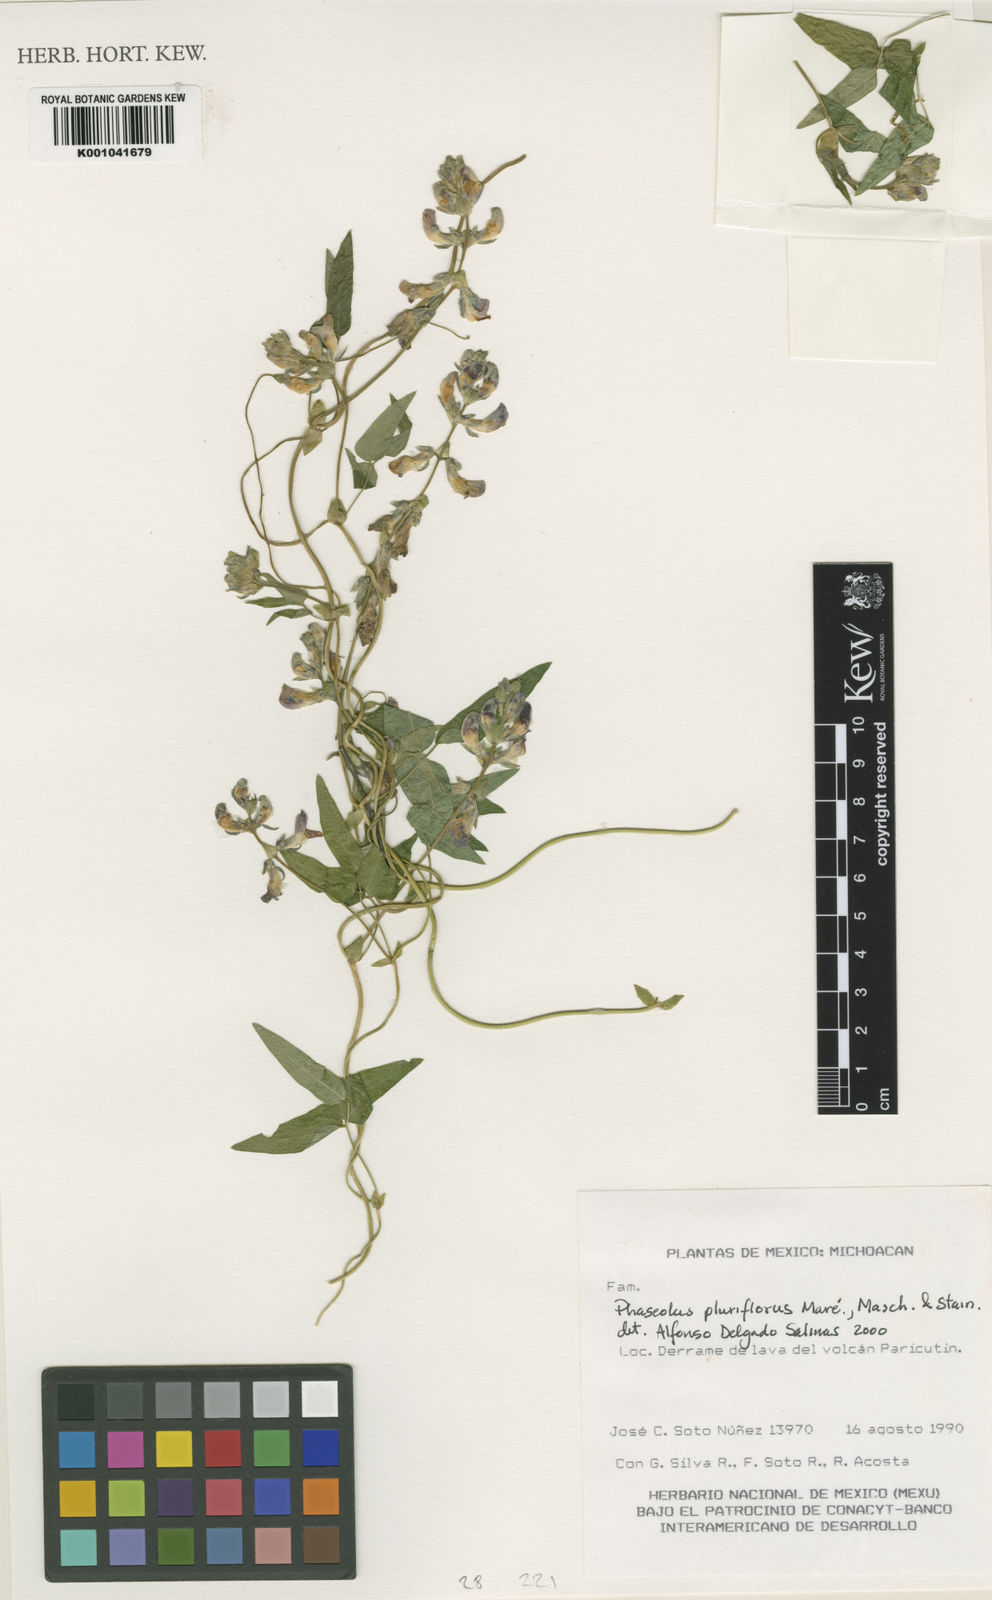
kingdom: Plantae
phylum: Tracheophyta
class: Magnoliopsida
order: Fabales
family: Fabaceae
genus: Phaseolus
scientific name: Phaseolus vulcanicus
